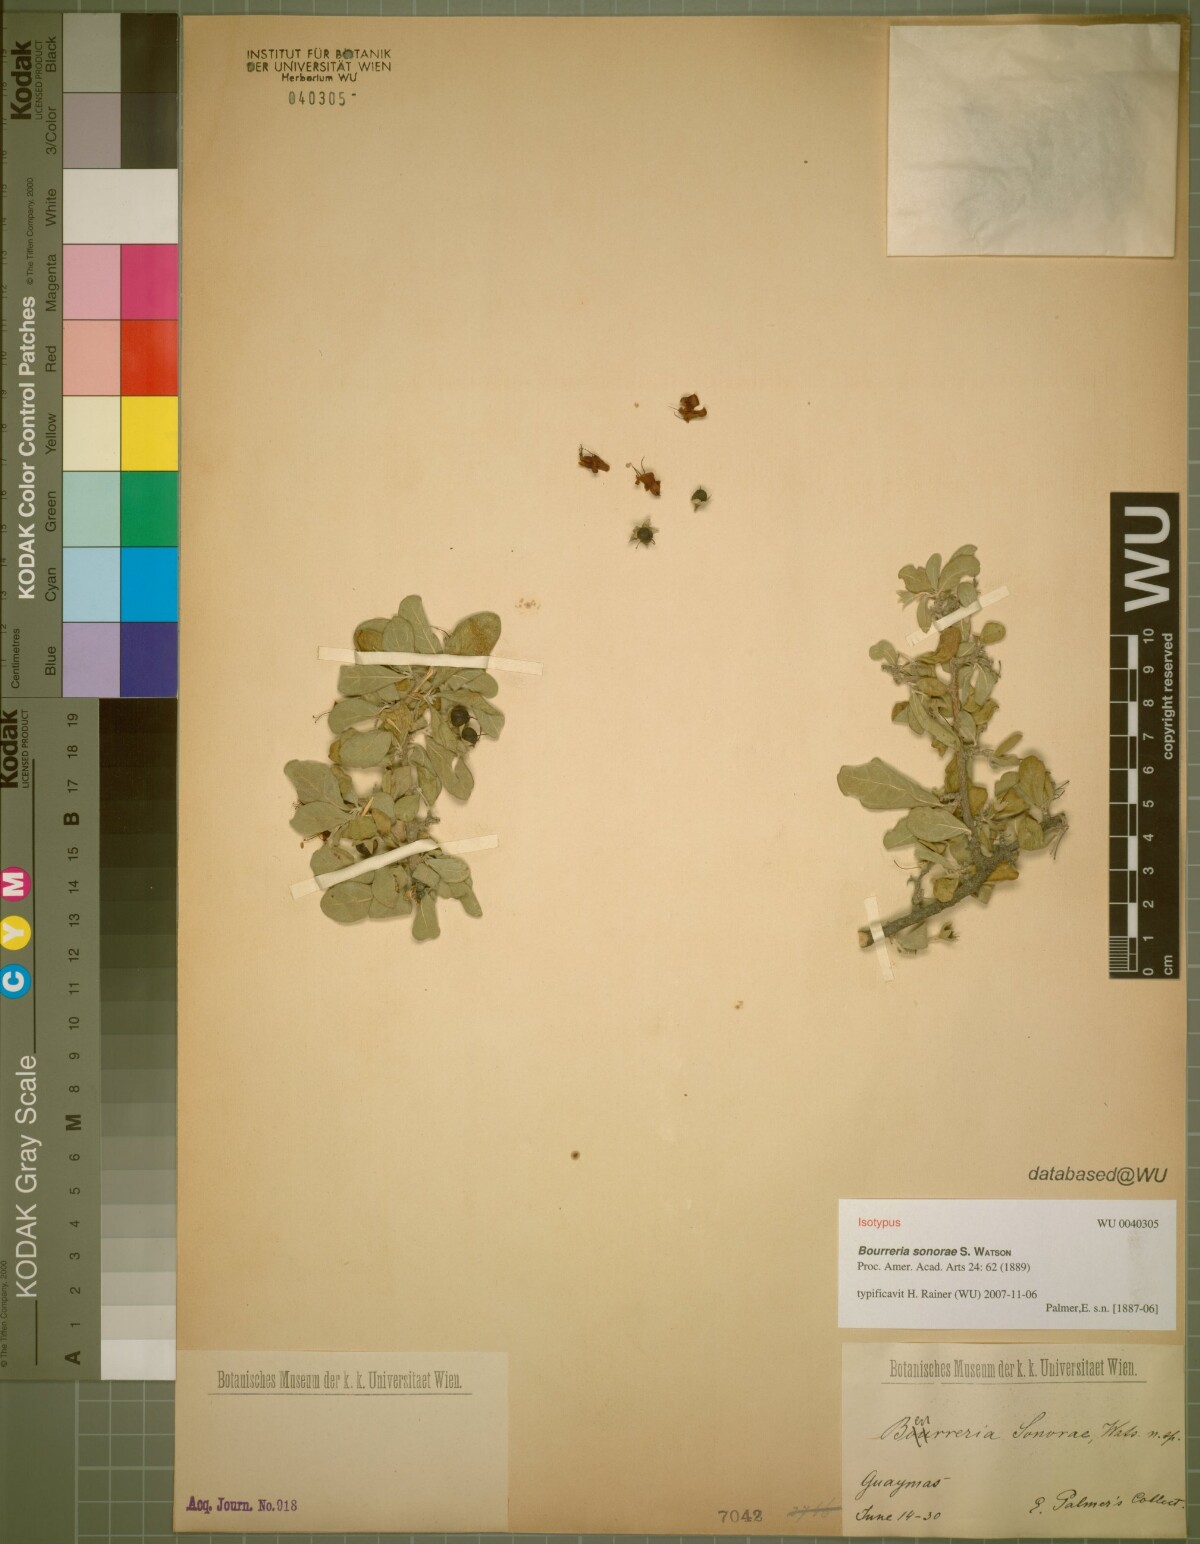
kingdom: Plantae
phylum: Tracheophyta
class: Magnoliopsida
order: Boraginales
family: Ehretiaceae
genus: Bourreria
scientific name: Bourreria sonorae
